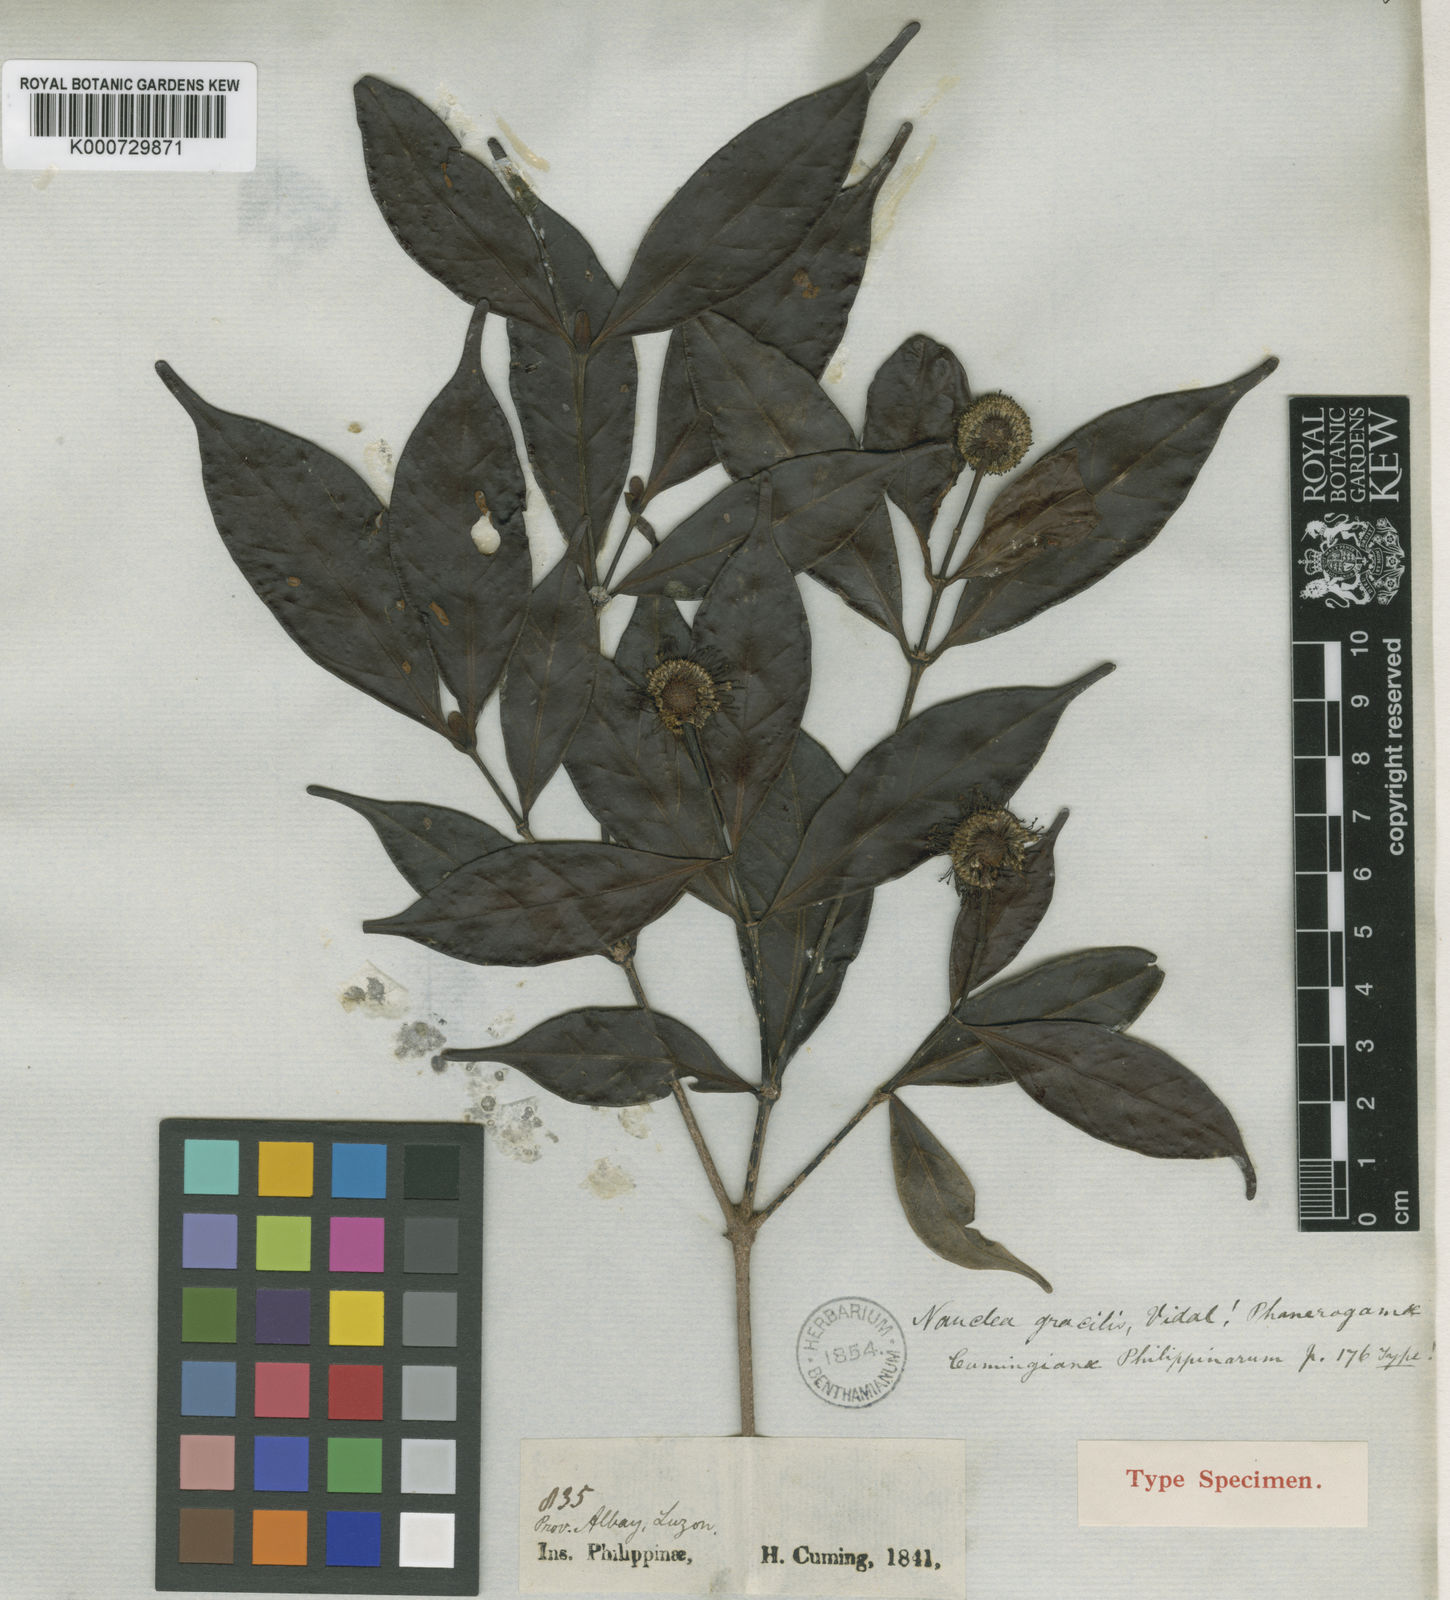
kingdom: Plantae
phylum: Tracheophyta
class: Magnoliopsida
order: Gentianales
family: Rubiaceae
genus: Neonauclea
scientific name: Neonauclea lanceolata
